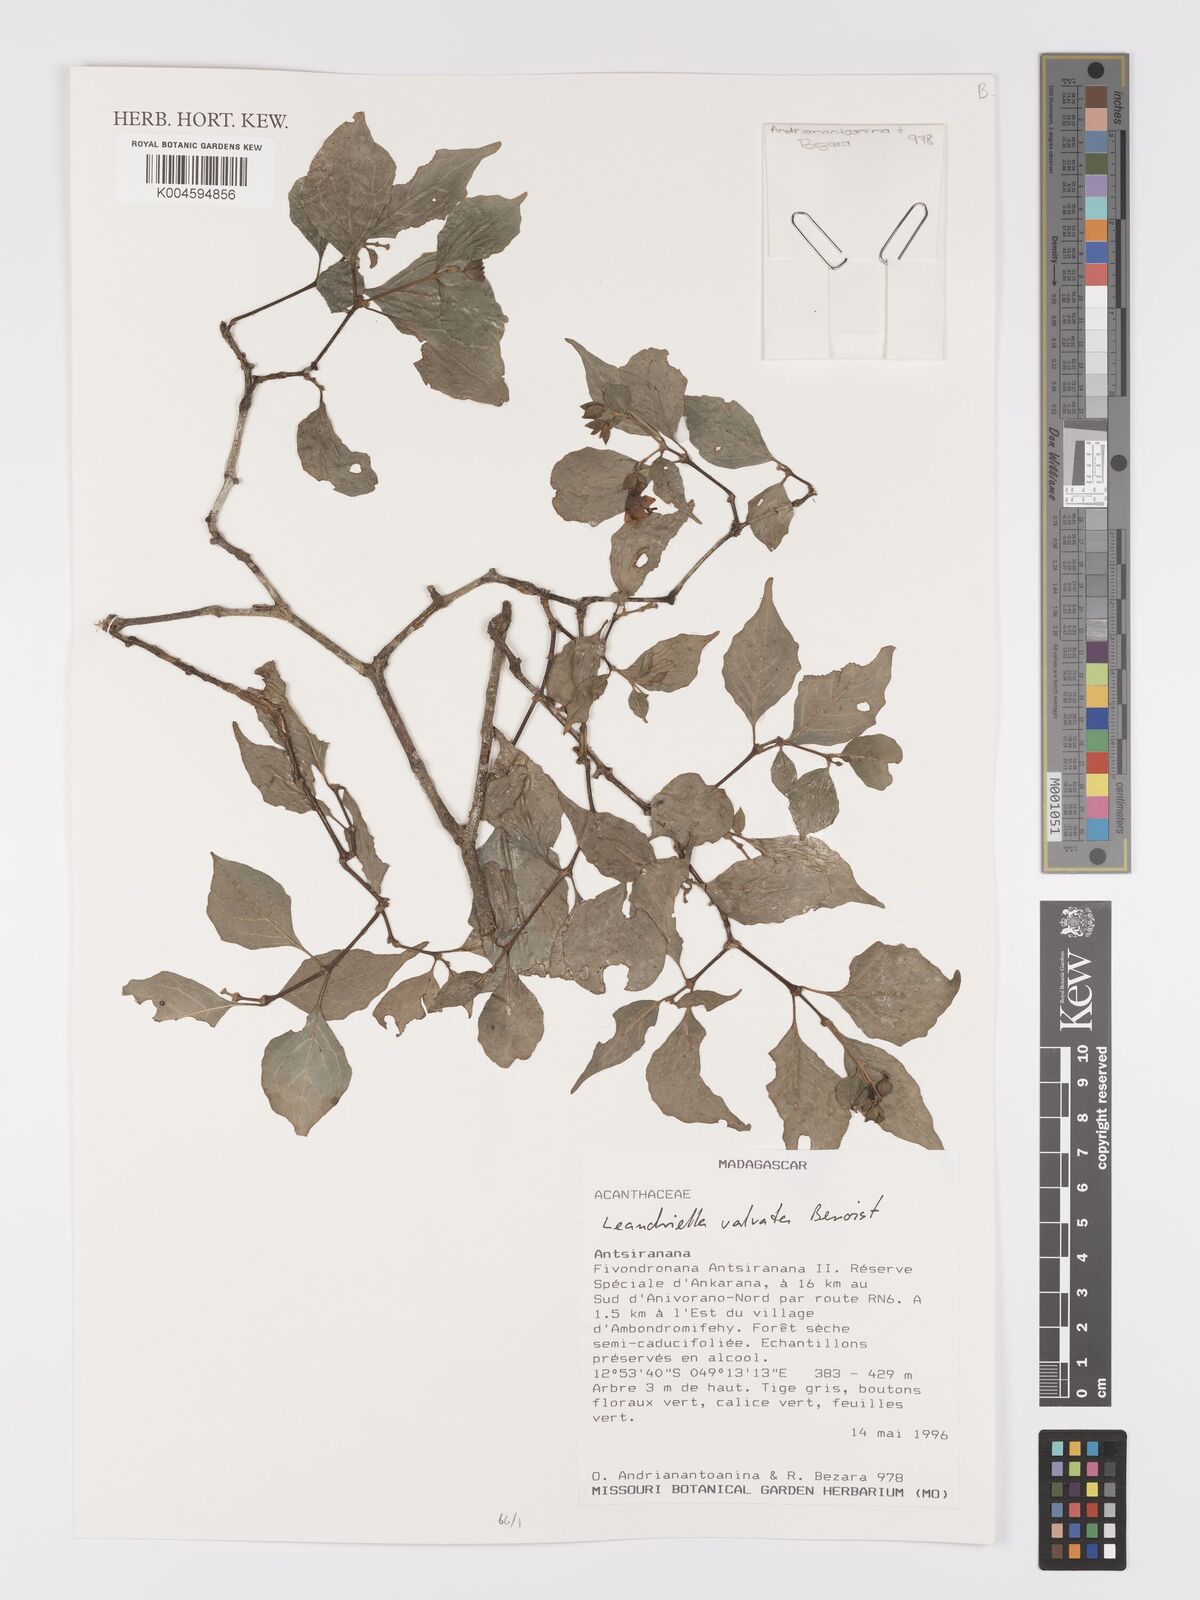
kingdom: Plantae
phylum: Tracheophyta
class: Magnoliopsida
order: Lamiales
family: Acanthaceae
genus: Leandriella
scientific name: Leandriella valvata
